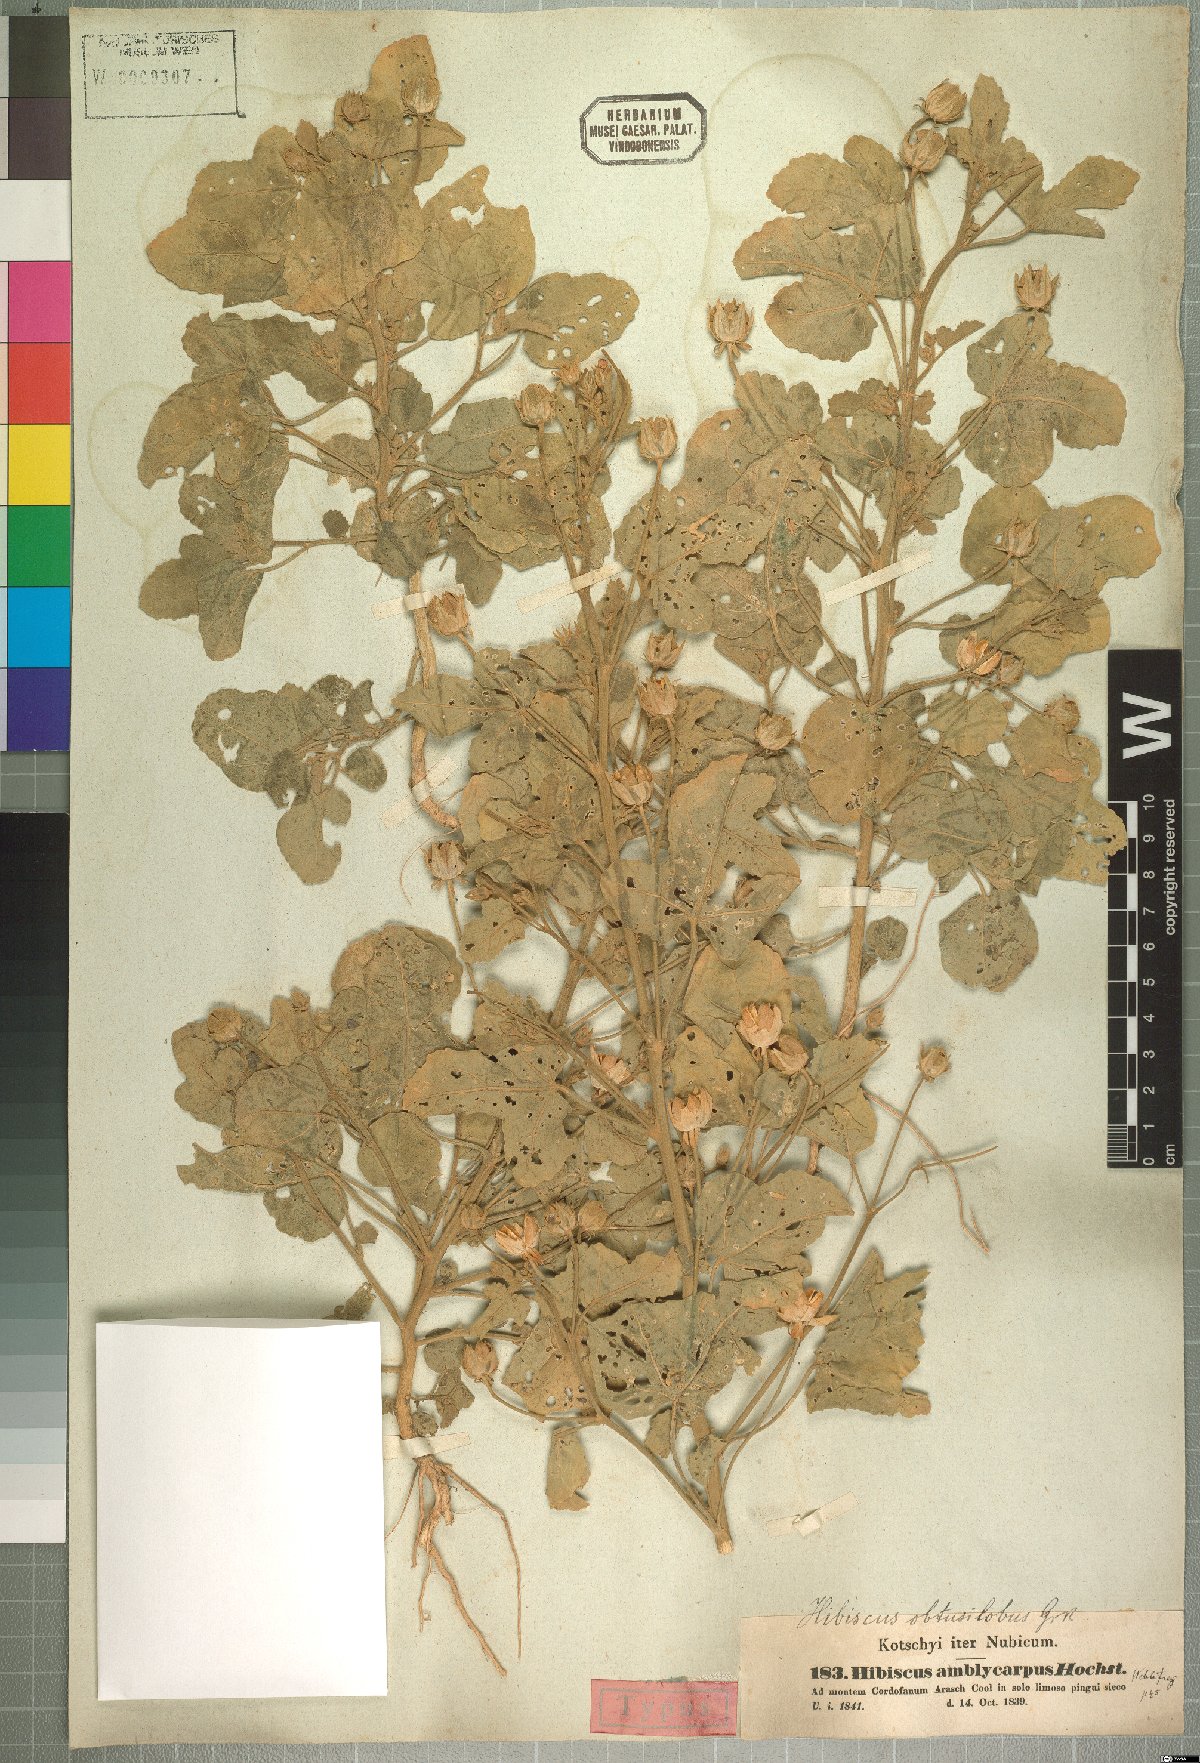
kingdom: Plantae
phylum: Tracheophyta
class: Magnoliopsida
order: Malvales
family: Malvaceae
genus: Hibiscus
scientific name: Hibiscus obtusilobus
